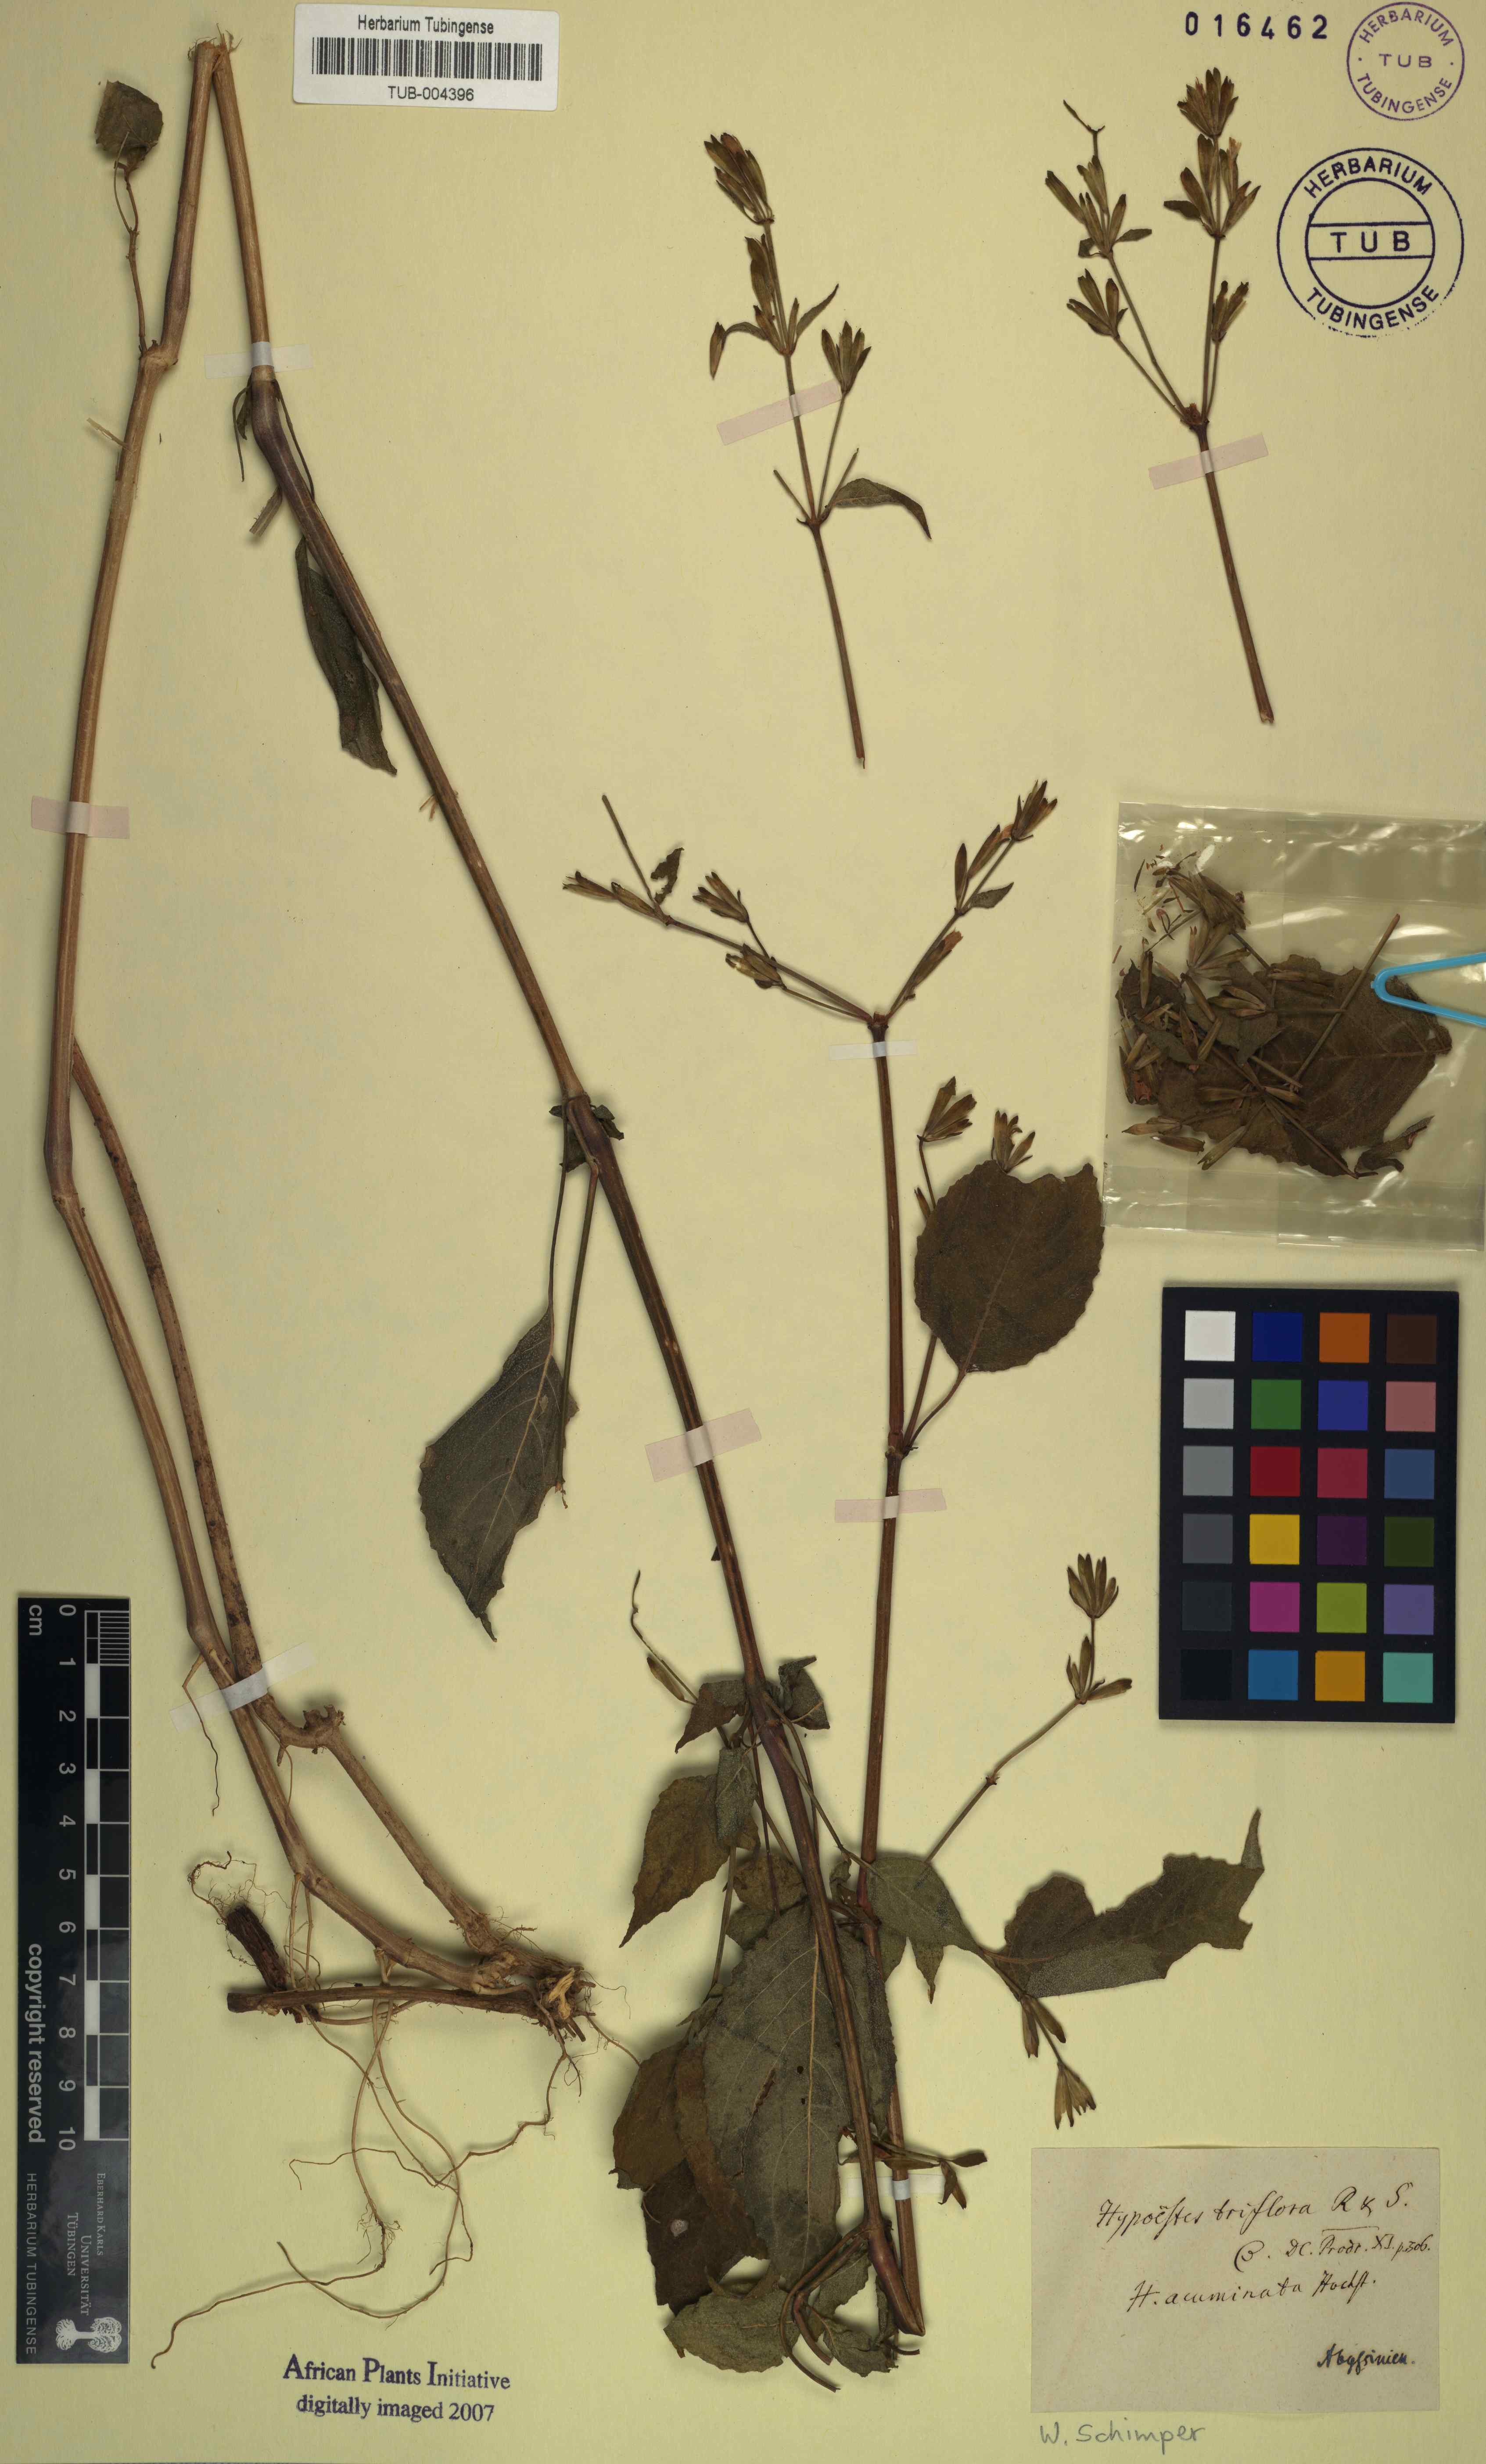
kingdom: Plantae
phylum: Tracheophyta
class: Magnoliopsida
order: Lamiales
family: Acanthaceae
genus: Hypoestes
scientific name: Hypoestes triflora
